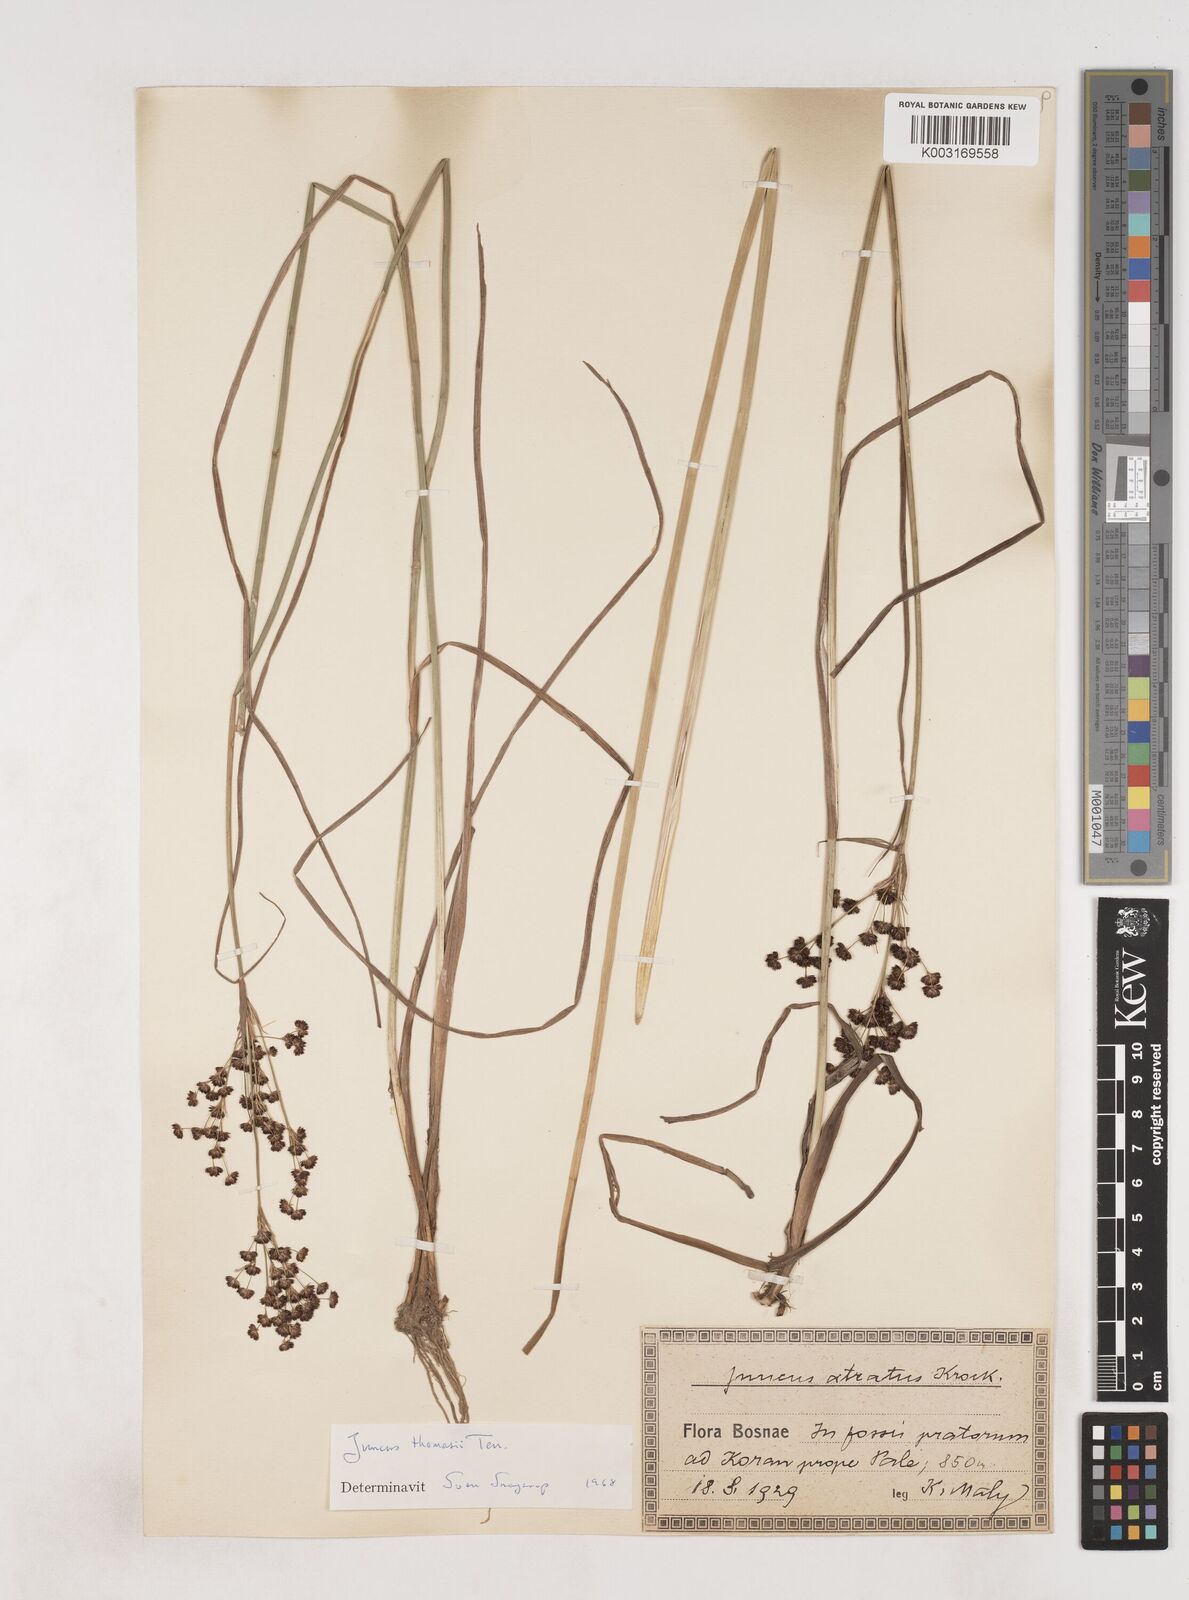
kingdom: Plantae
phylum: Tracheophyta
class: Liliopsida
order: Poales
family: Juncaceae
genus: Juncus
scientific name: Juncus thomasii
